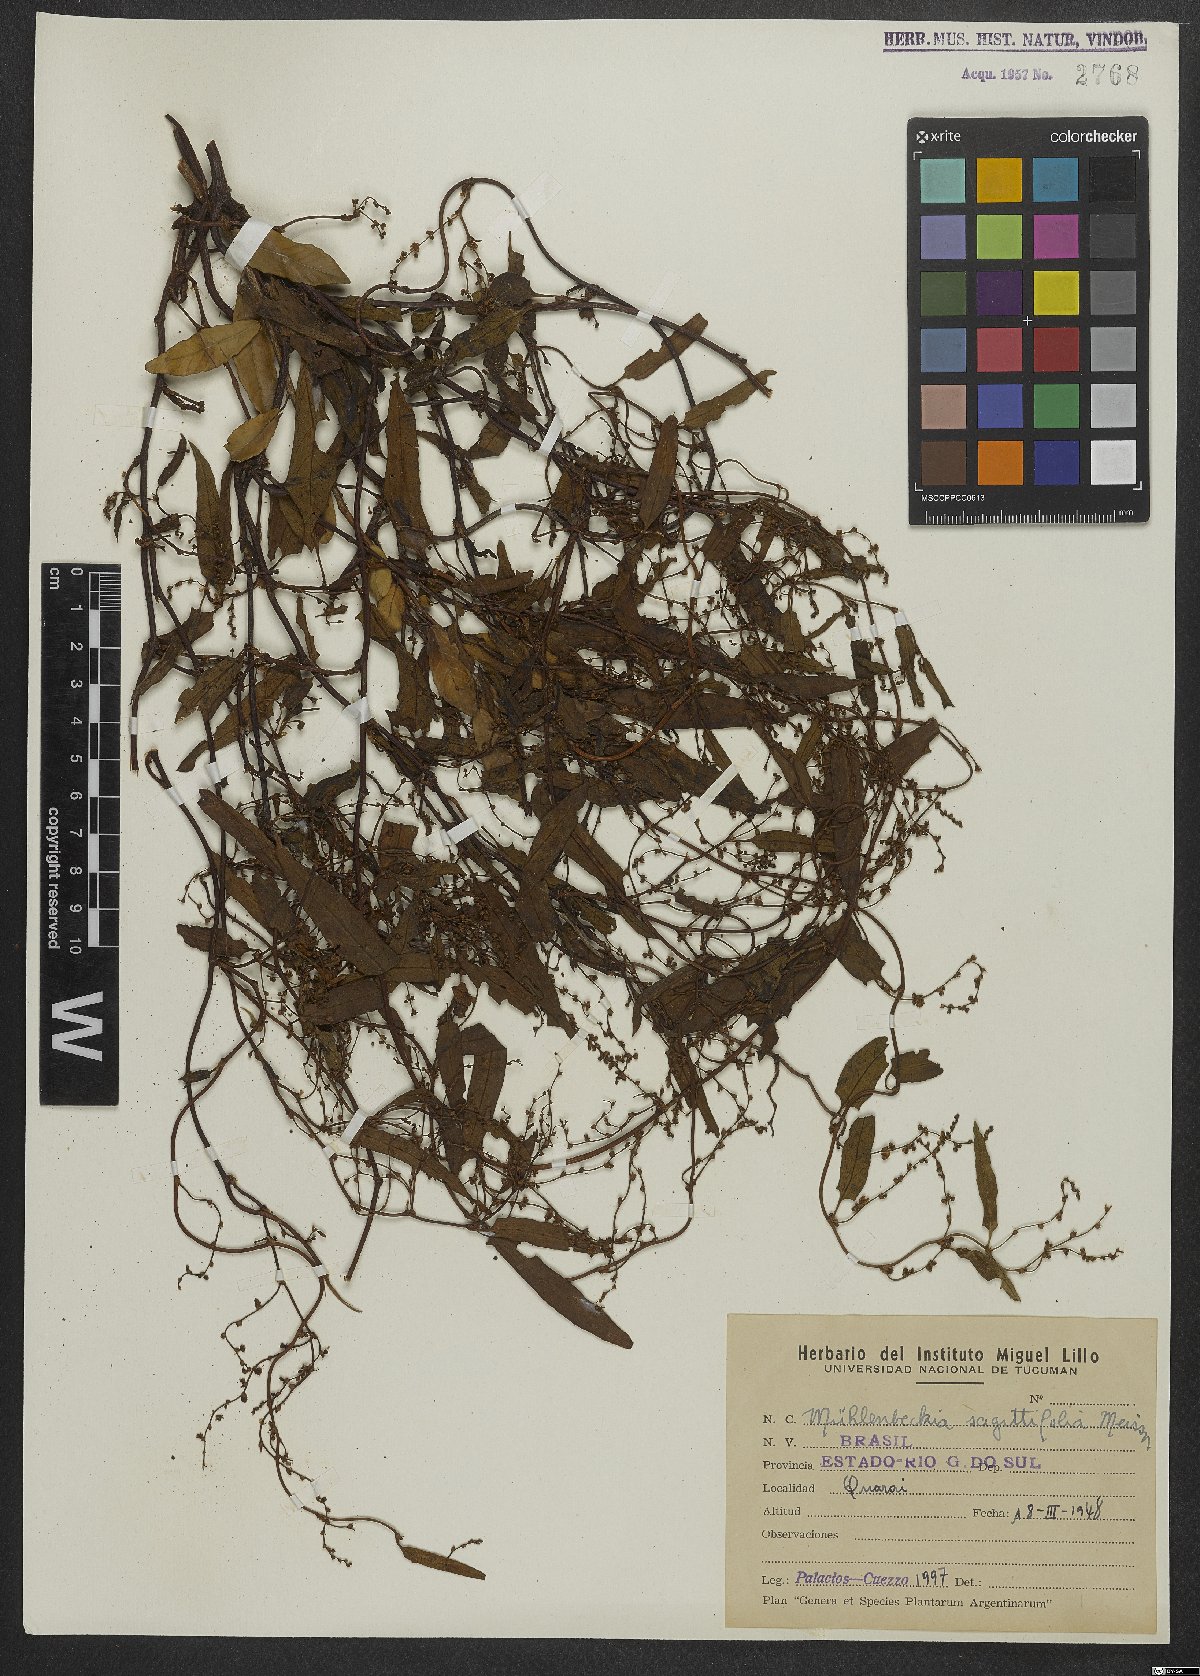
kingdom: Plantae
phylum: Tracheophyta
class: Magnoliopsida
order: Caryophyllales
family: Polygonaceae
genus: Muehlenbeckia
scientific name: Muehlenbeckia sagittifolia
